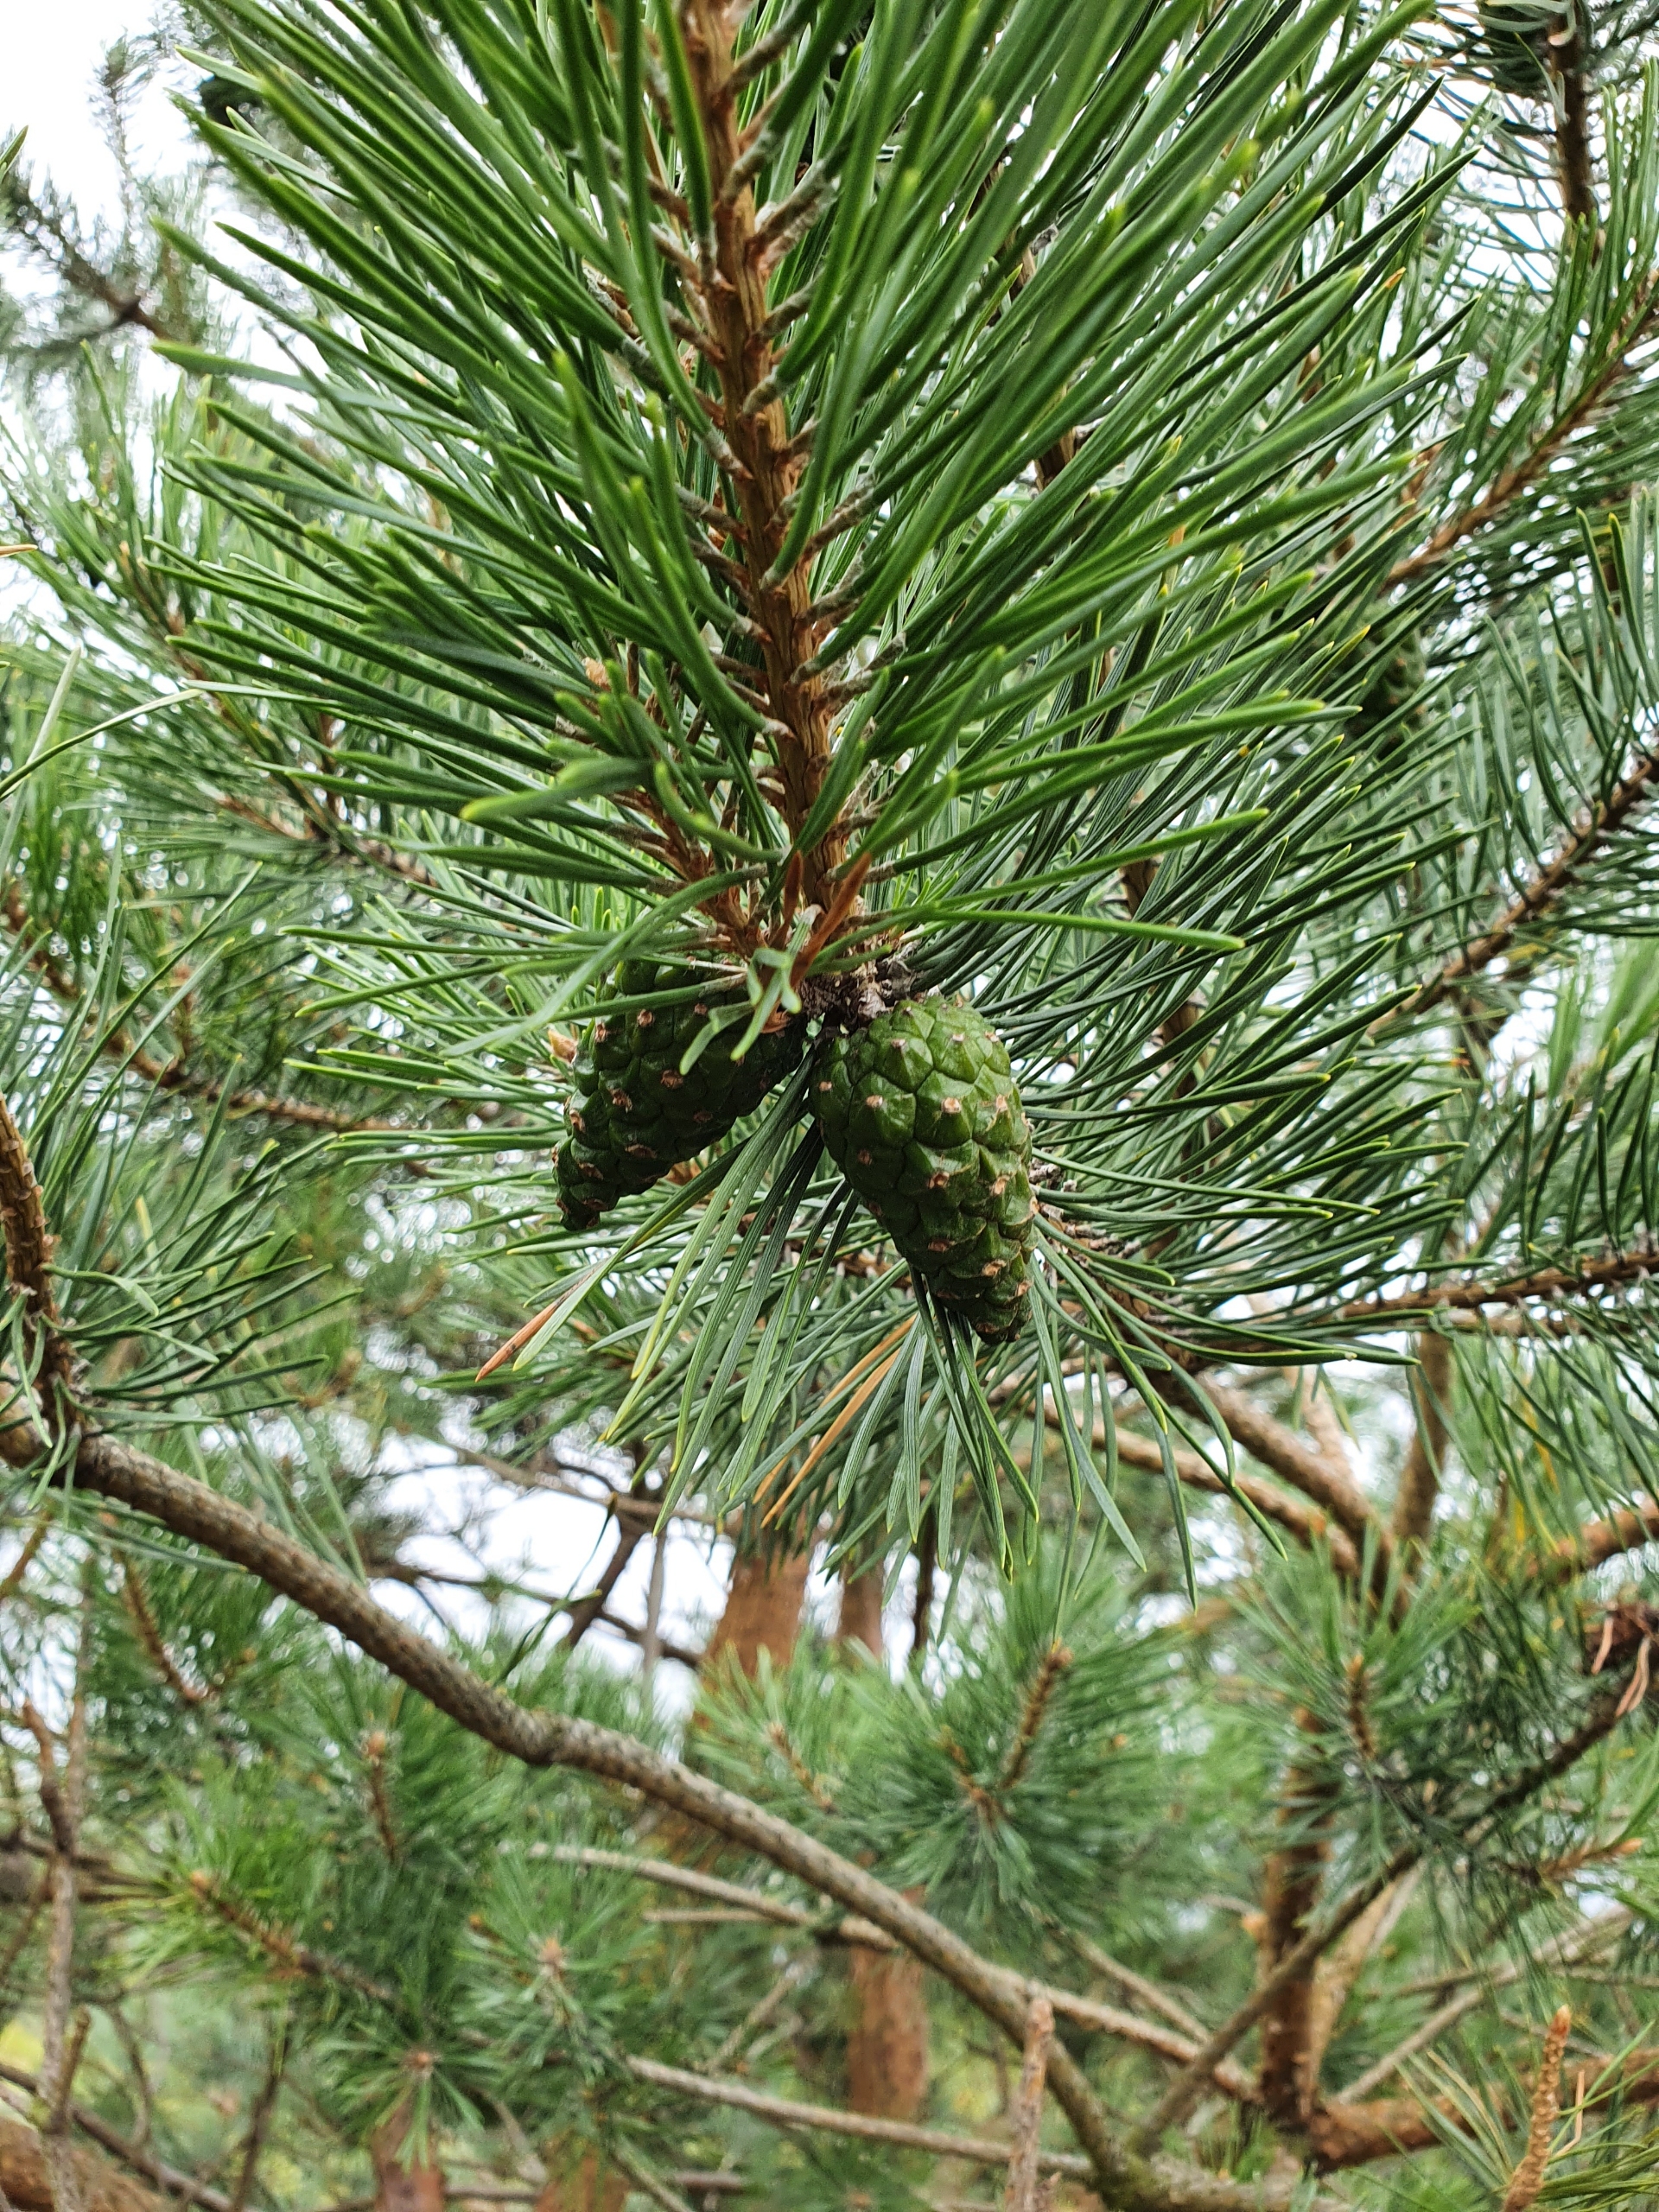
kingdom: Plantae
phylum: Tracheophyta
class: Pinopsida
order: Pinales
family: Pinaceae
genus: Pinus
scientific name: Pinus contorta
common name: Klit-fyr
